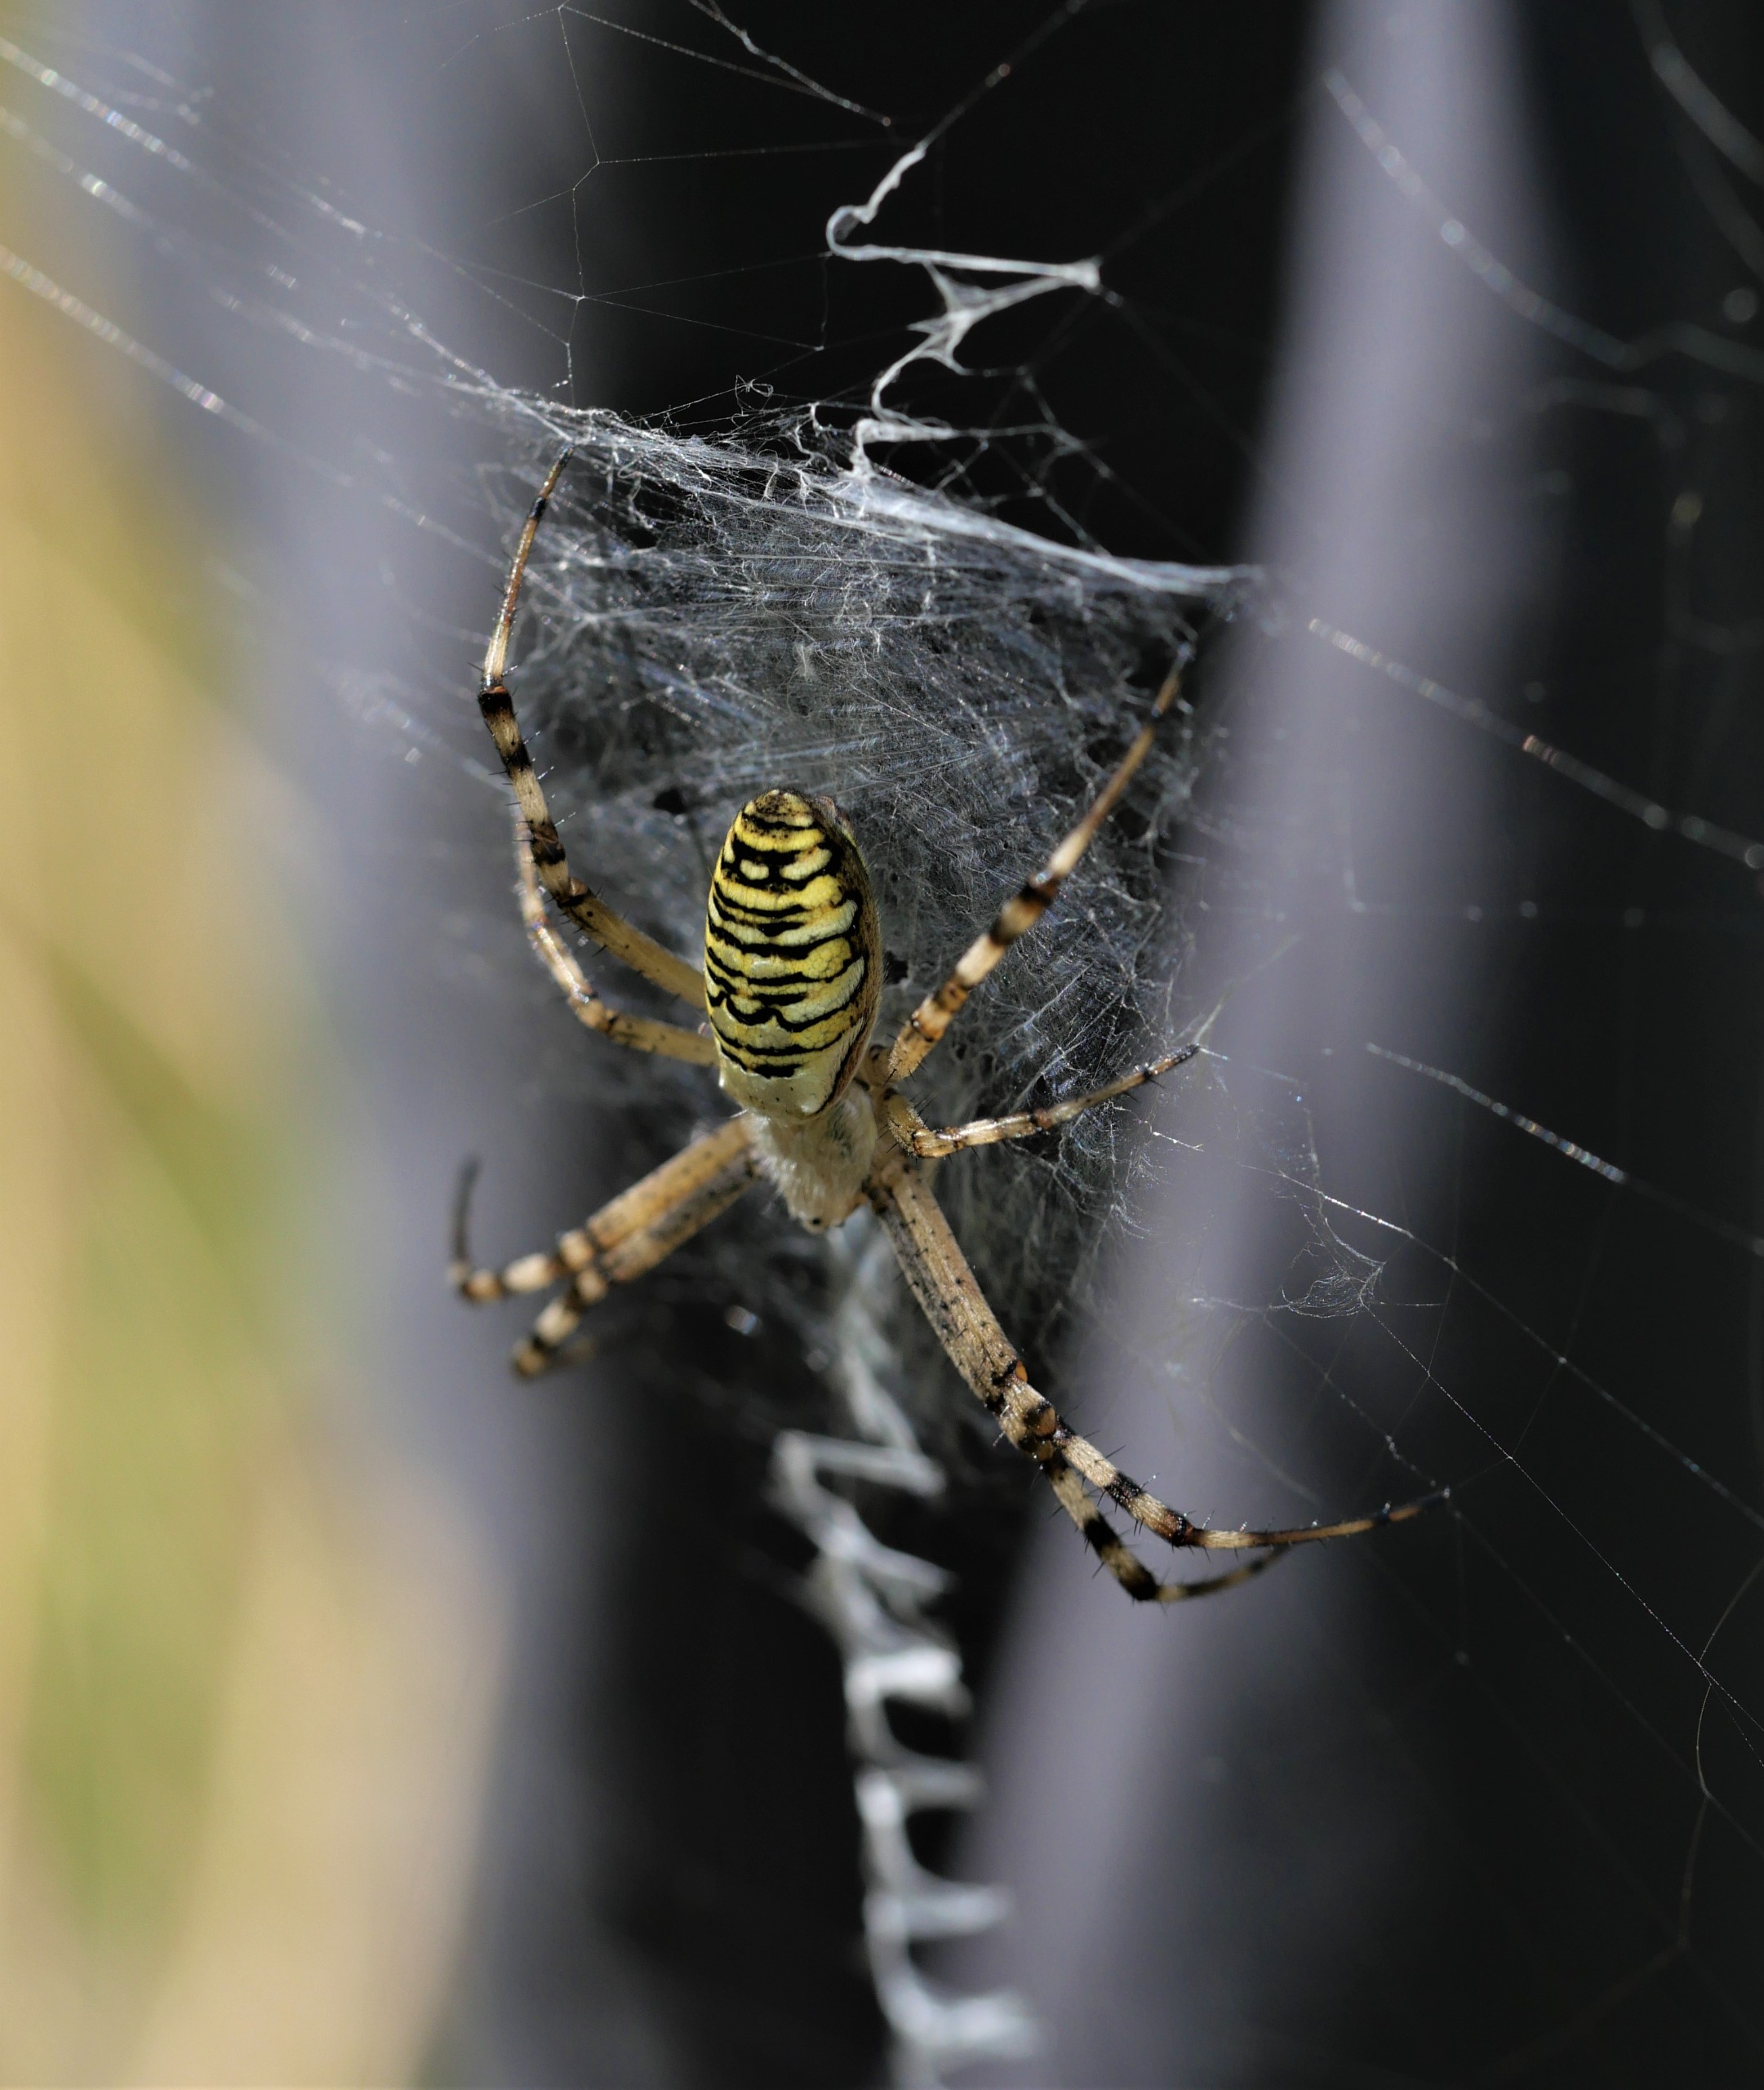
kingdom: Animalia
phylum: Arthropoda
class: Arachnida
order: Araneae
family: Araneidae
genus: Argiope
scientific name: Argiope bruennichi
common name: Hvepseedderkop
